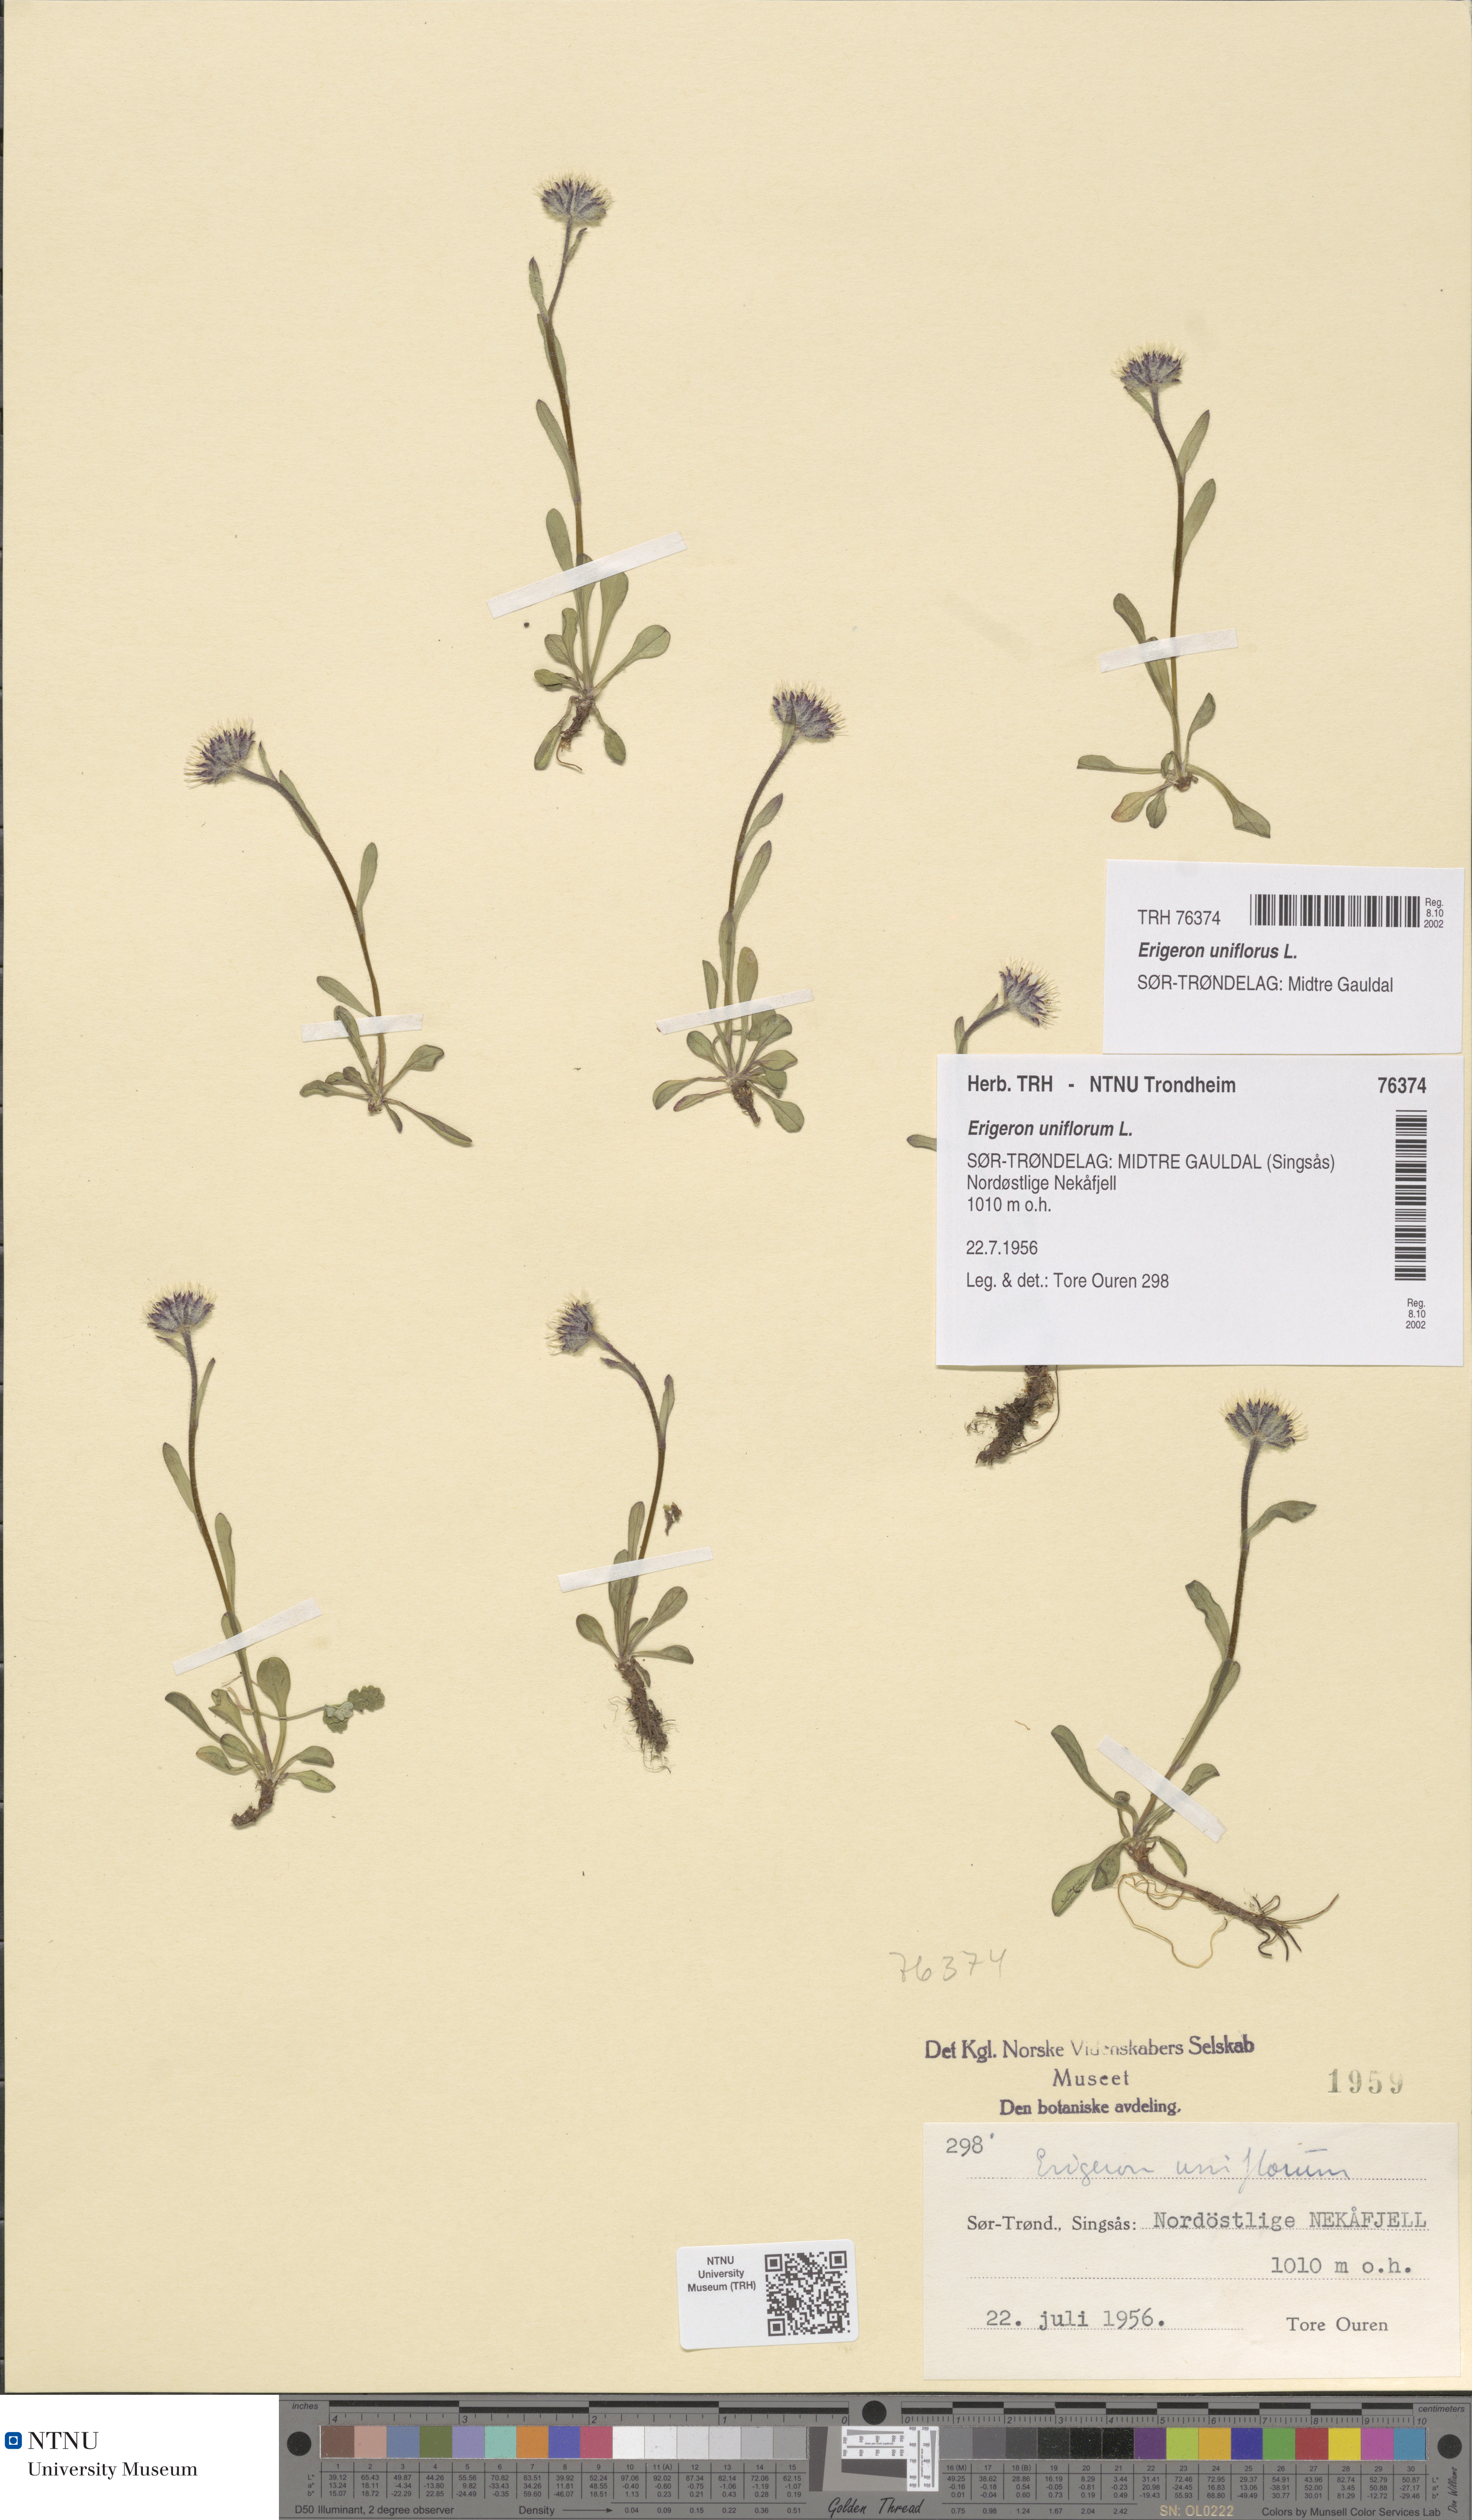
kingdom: Plantae
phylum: Tracheophyta
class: Magnoliopsida
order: Asterales
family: Asteraceae
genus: Erigeron
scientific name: Erigeron uniflorus
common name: Northern daisy
